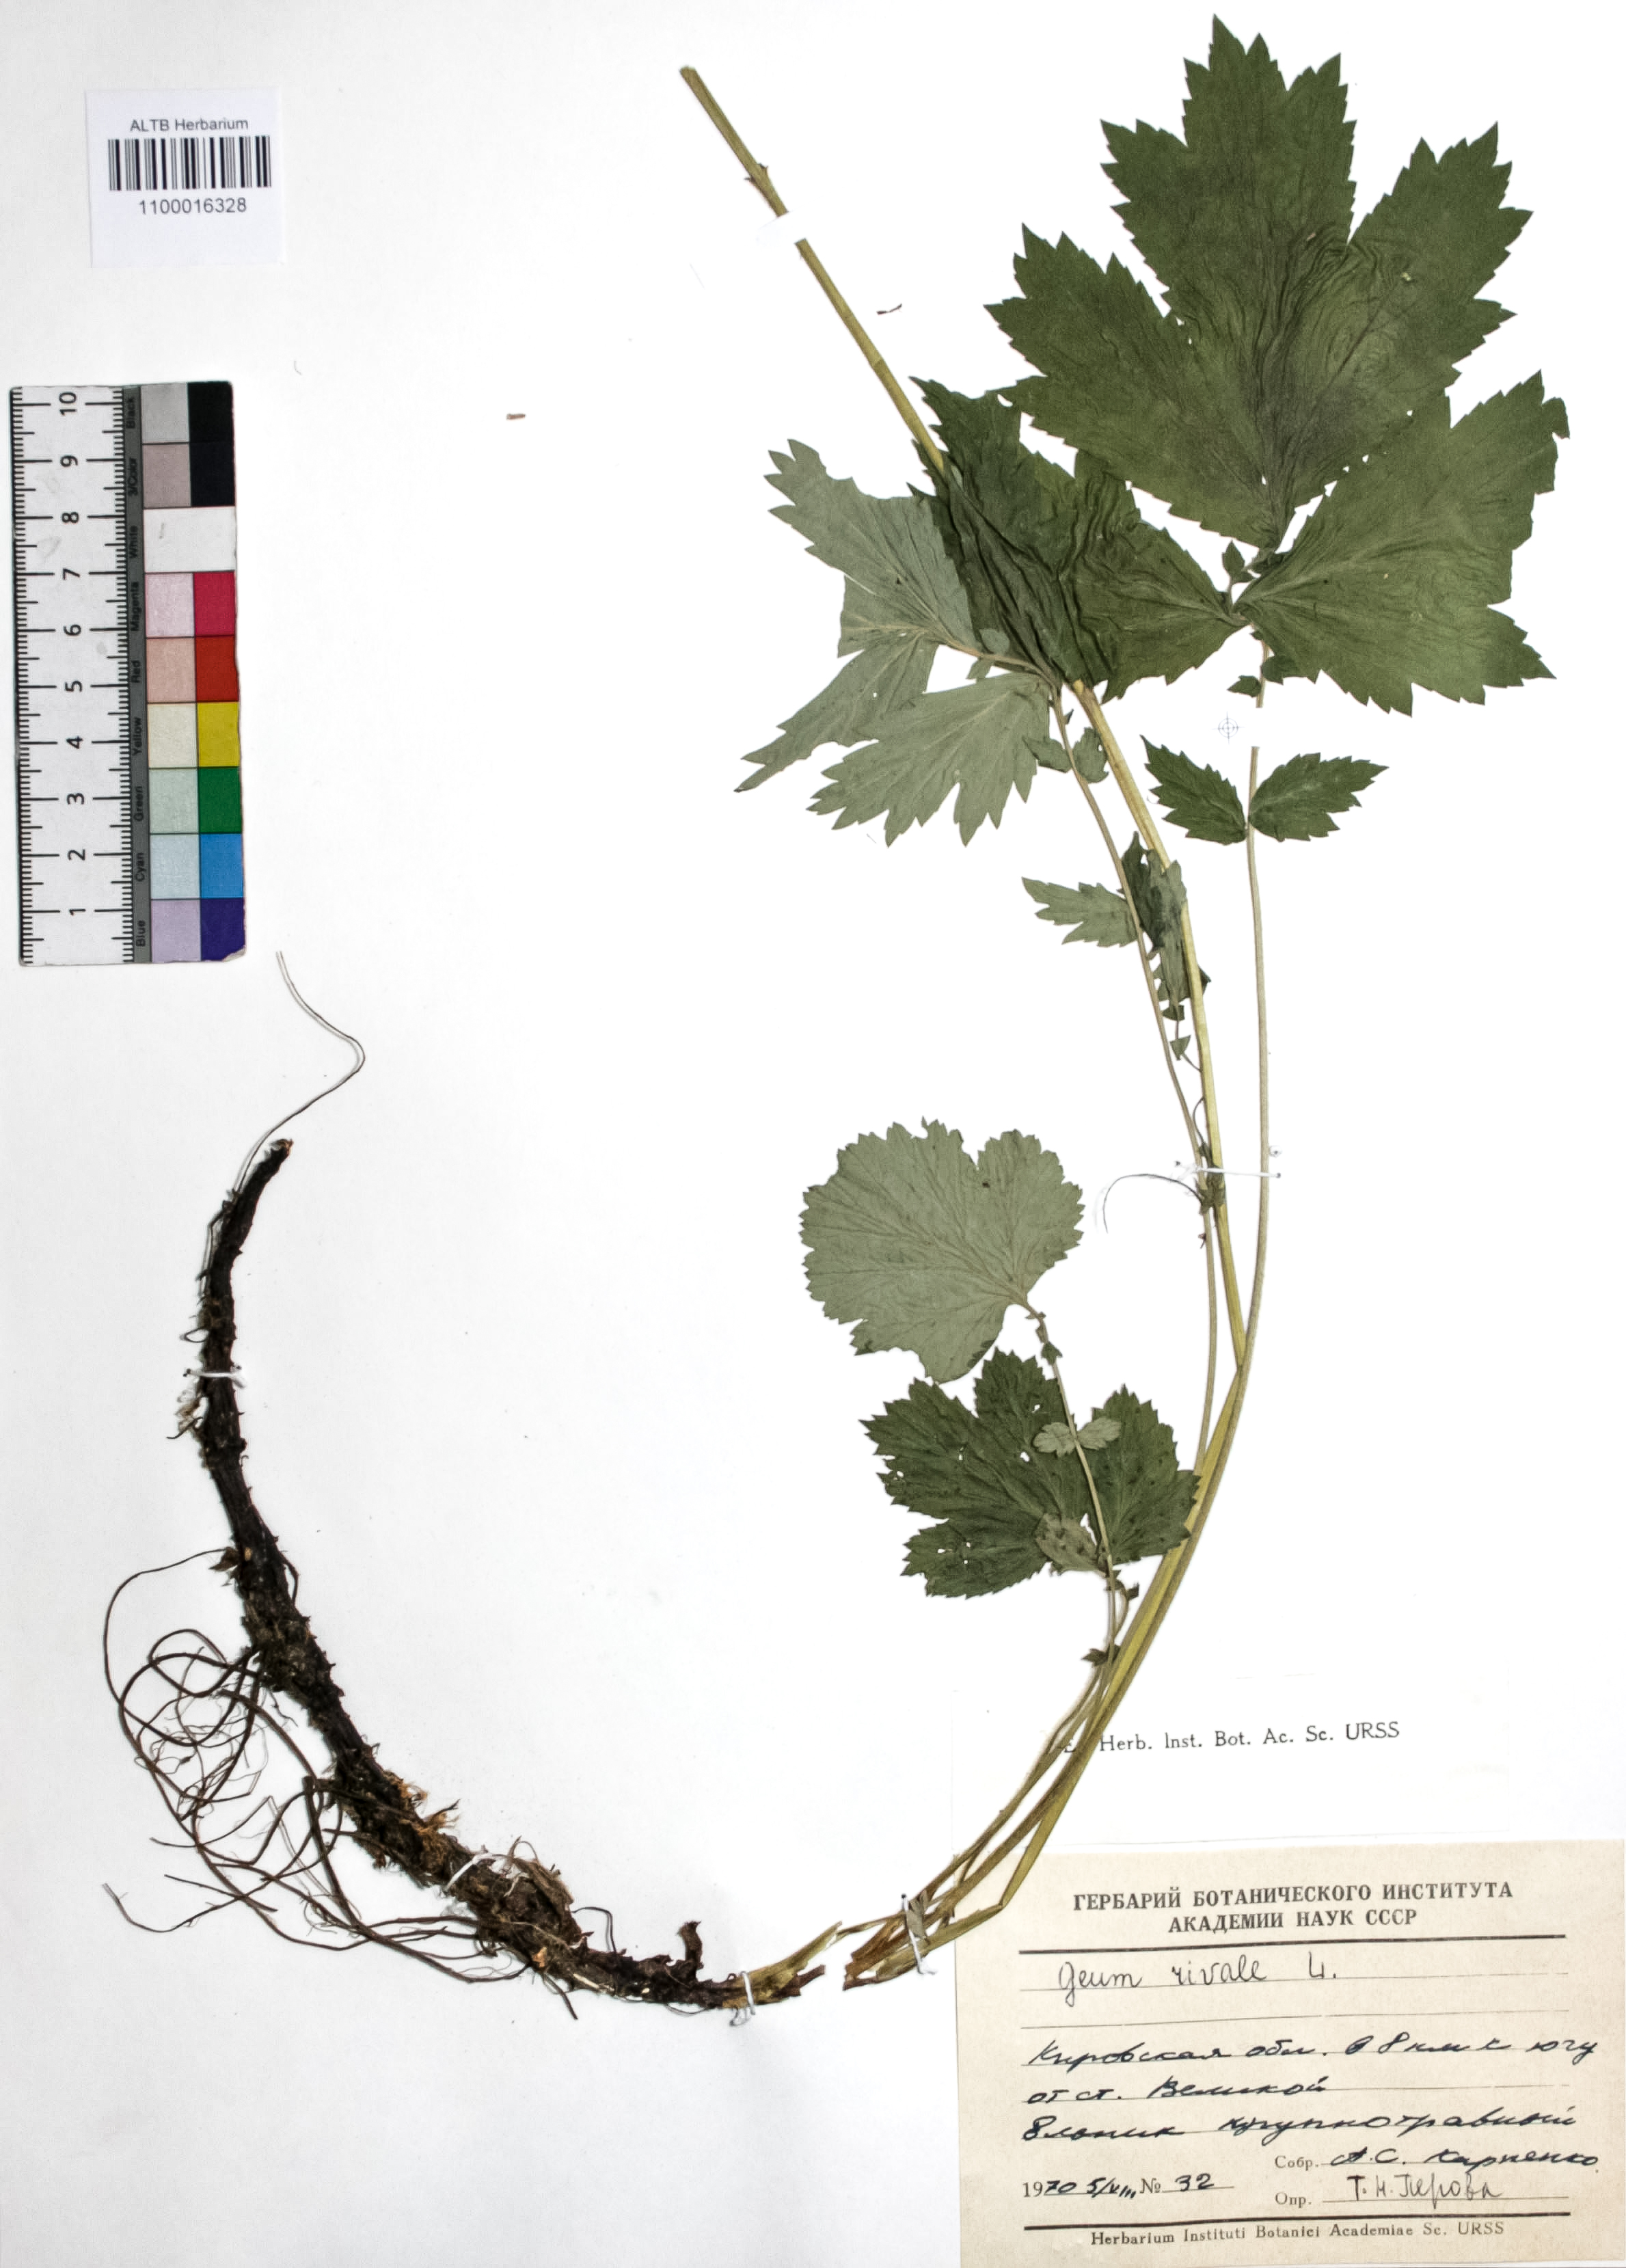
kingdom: Plantae
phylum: Tracheophyta
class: Magnoliopsida
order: Rosales
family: Rosaceae
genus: Geum
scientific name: Geum rivale
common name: Water avens
